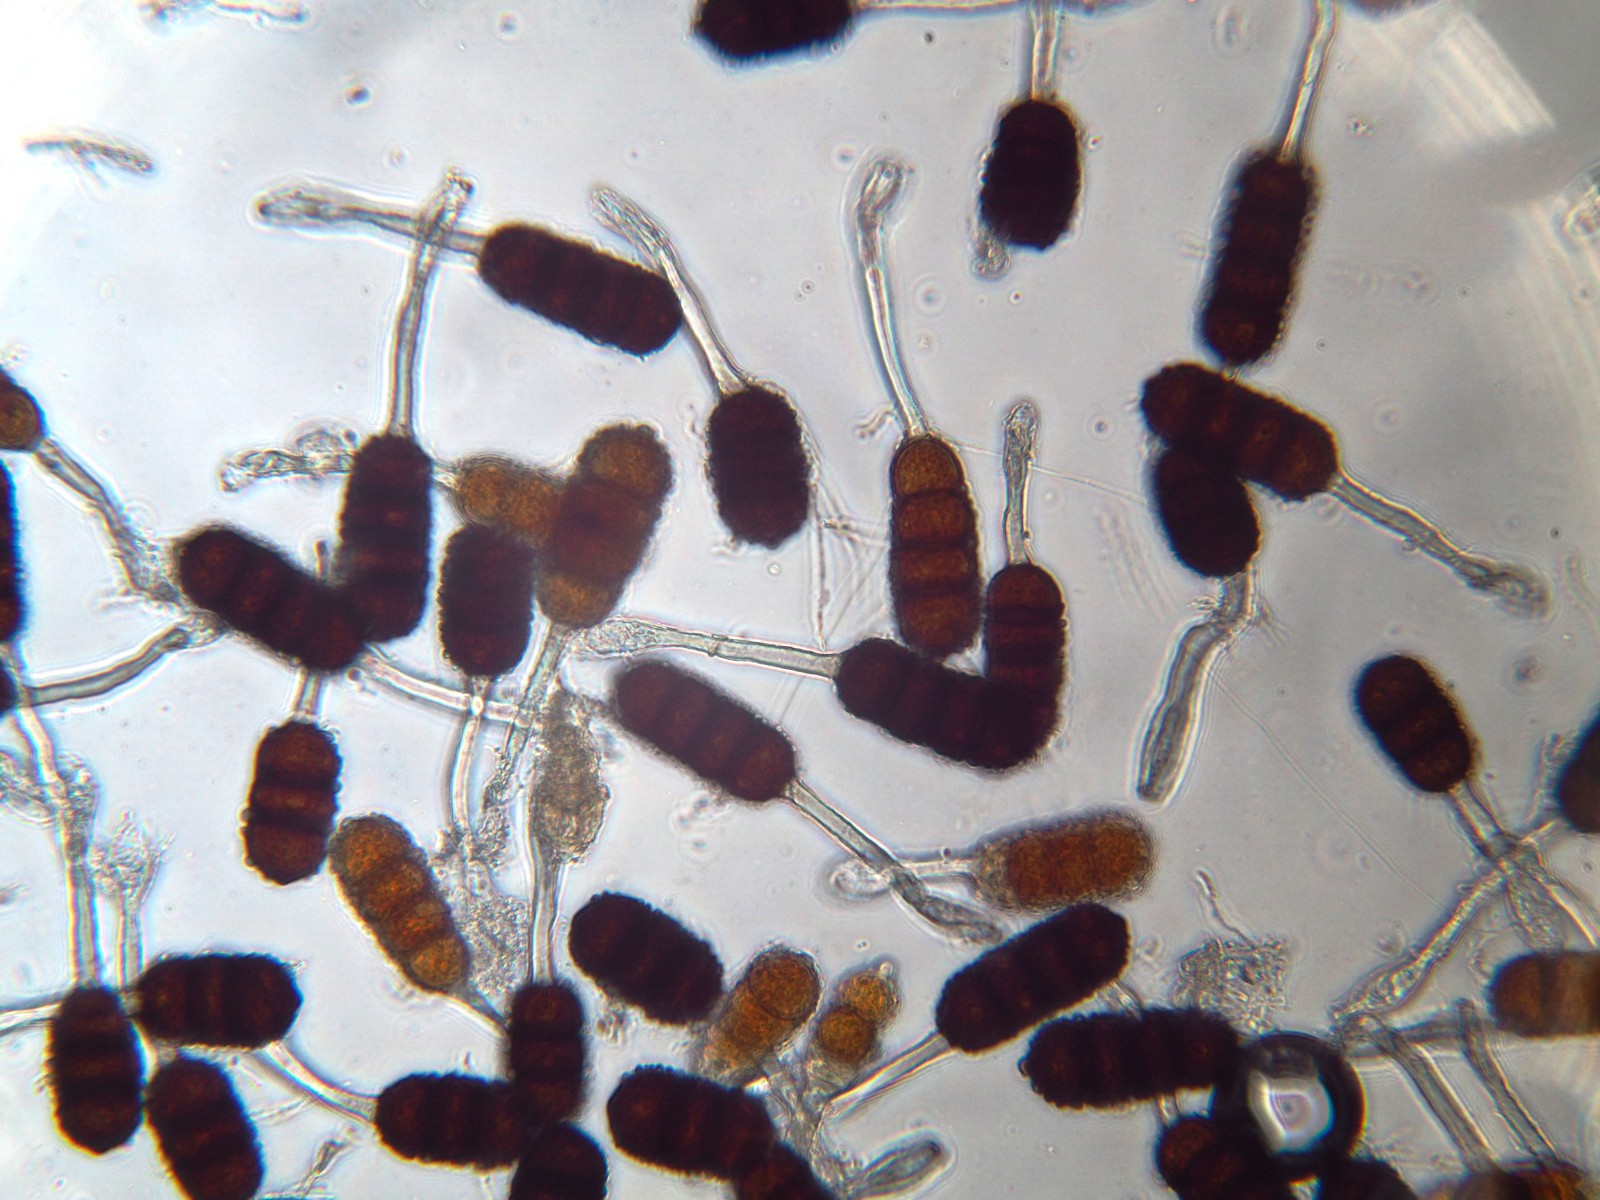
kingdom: Fungi
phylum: Basidiomycota
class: Pucciniomycetes
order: Pucciniales
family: Phragmidiaceae
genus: Phragmidium
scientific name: Phragmidium violaceum
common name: violet flercellerust
